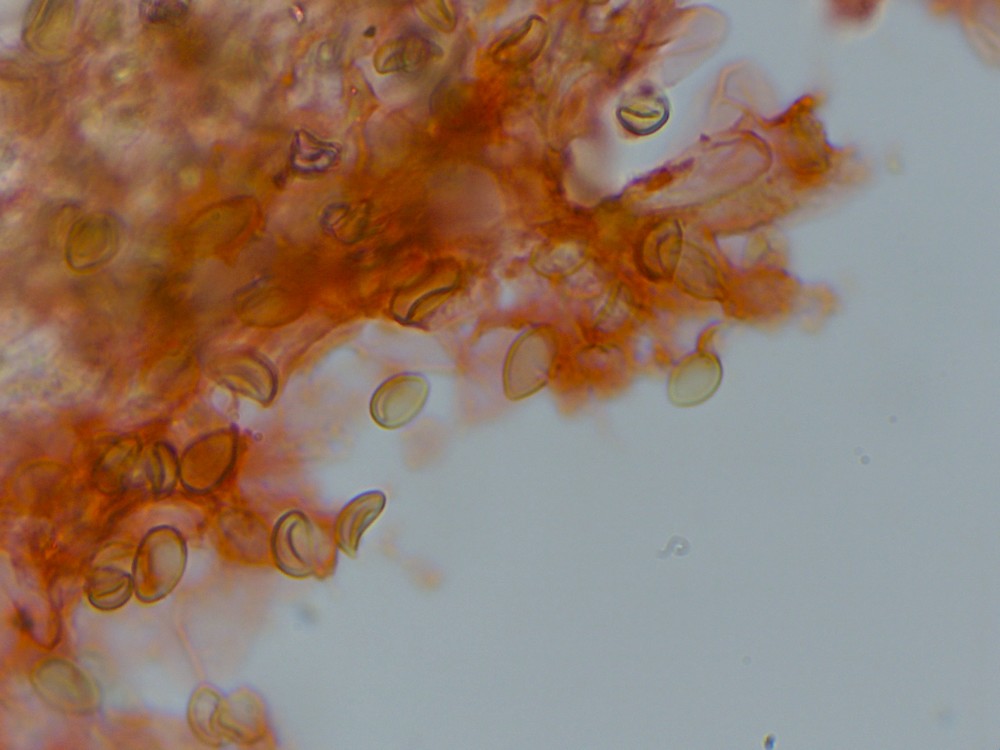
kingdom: Fungi
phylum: Basidiomycota
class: Agaricomycetes
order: Agaricales
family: Inocybaceae
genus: Inocybe
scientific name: Inocybe
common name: trævlhat
